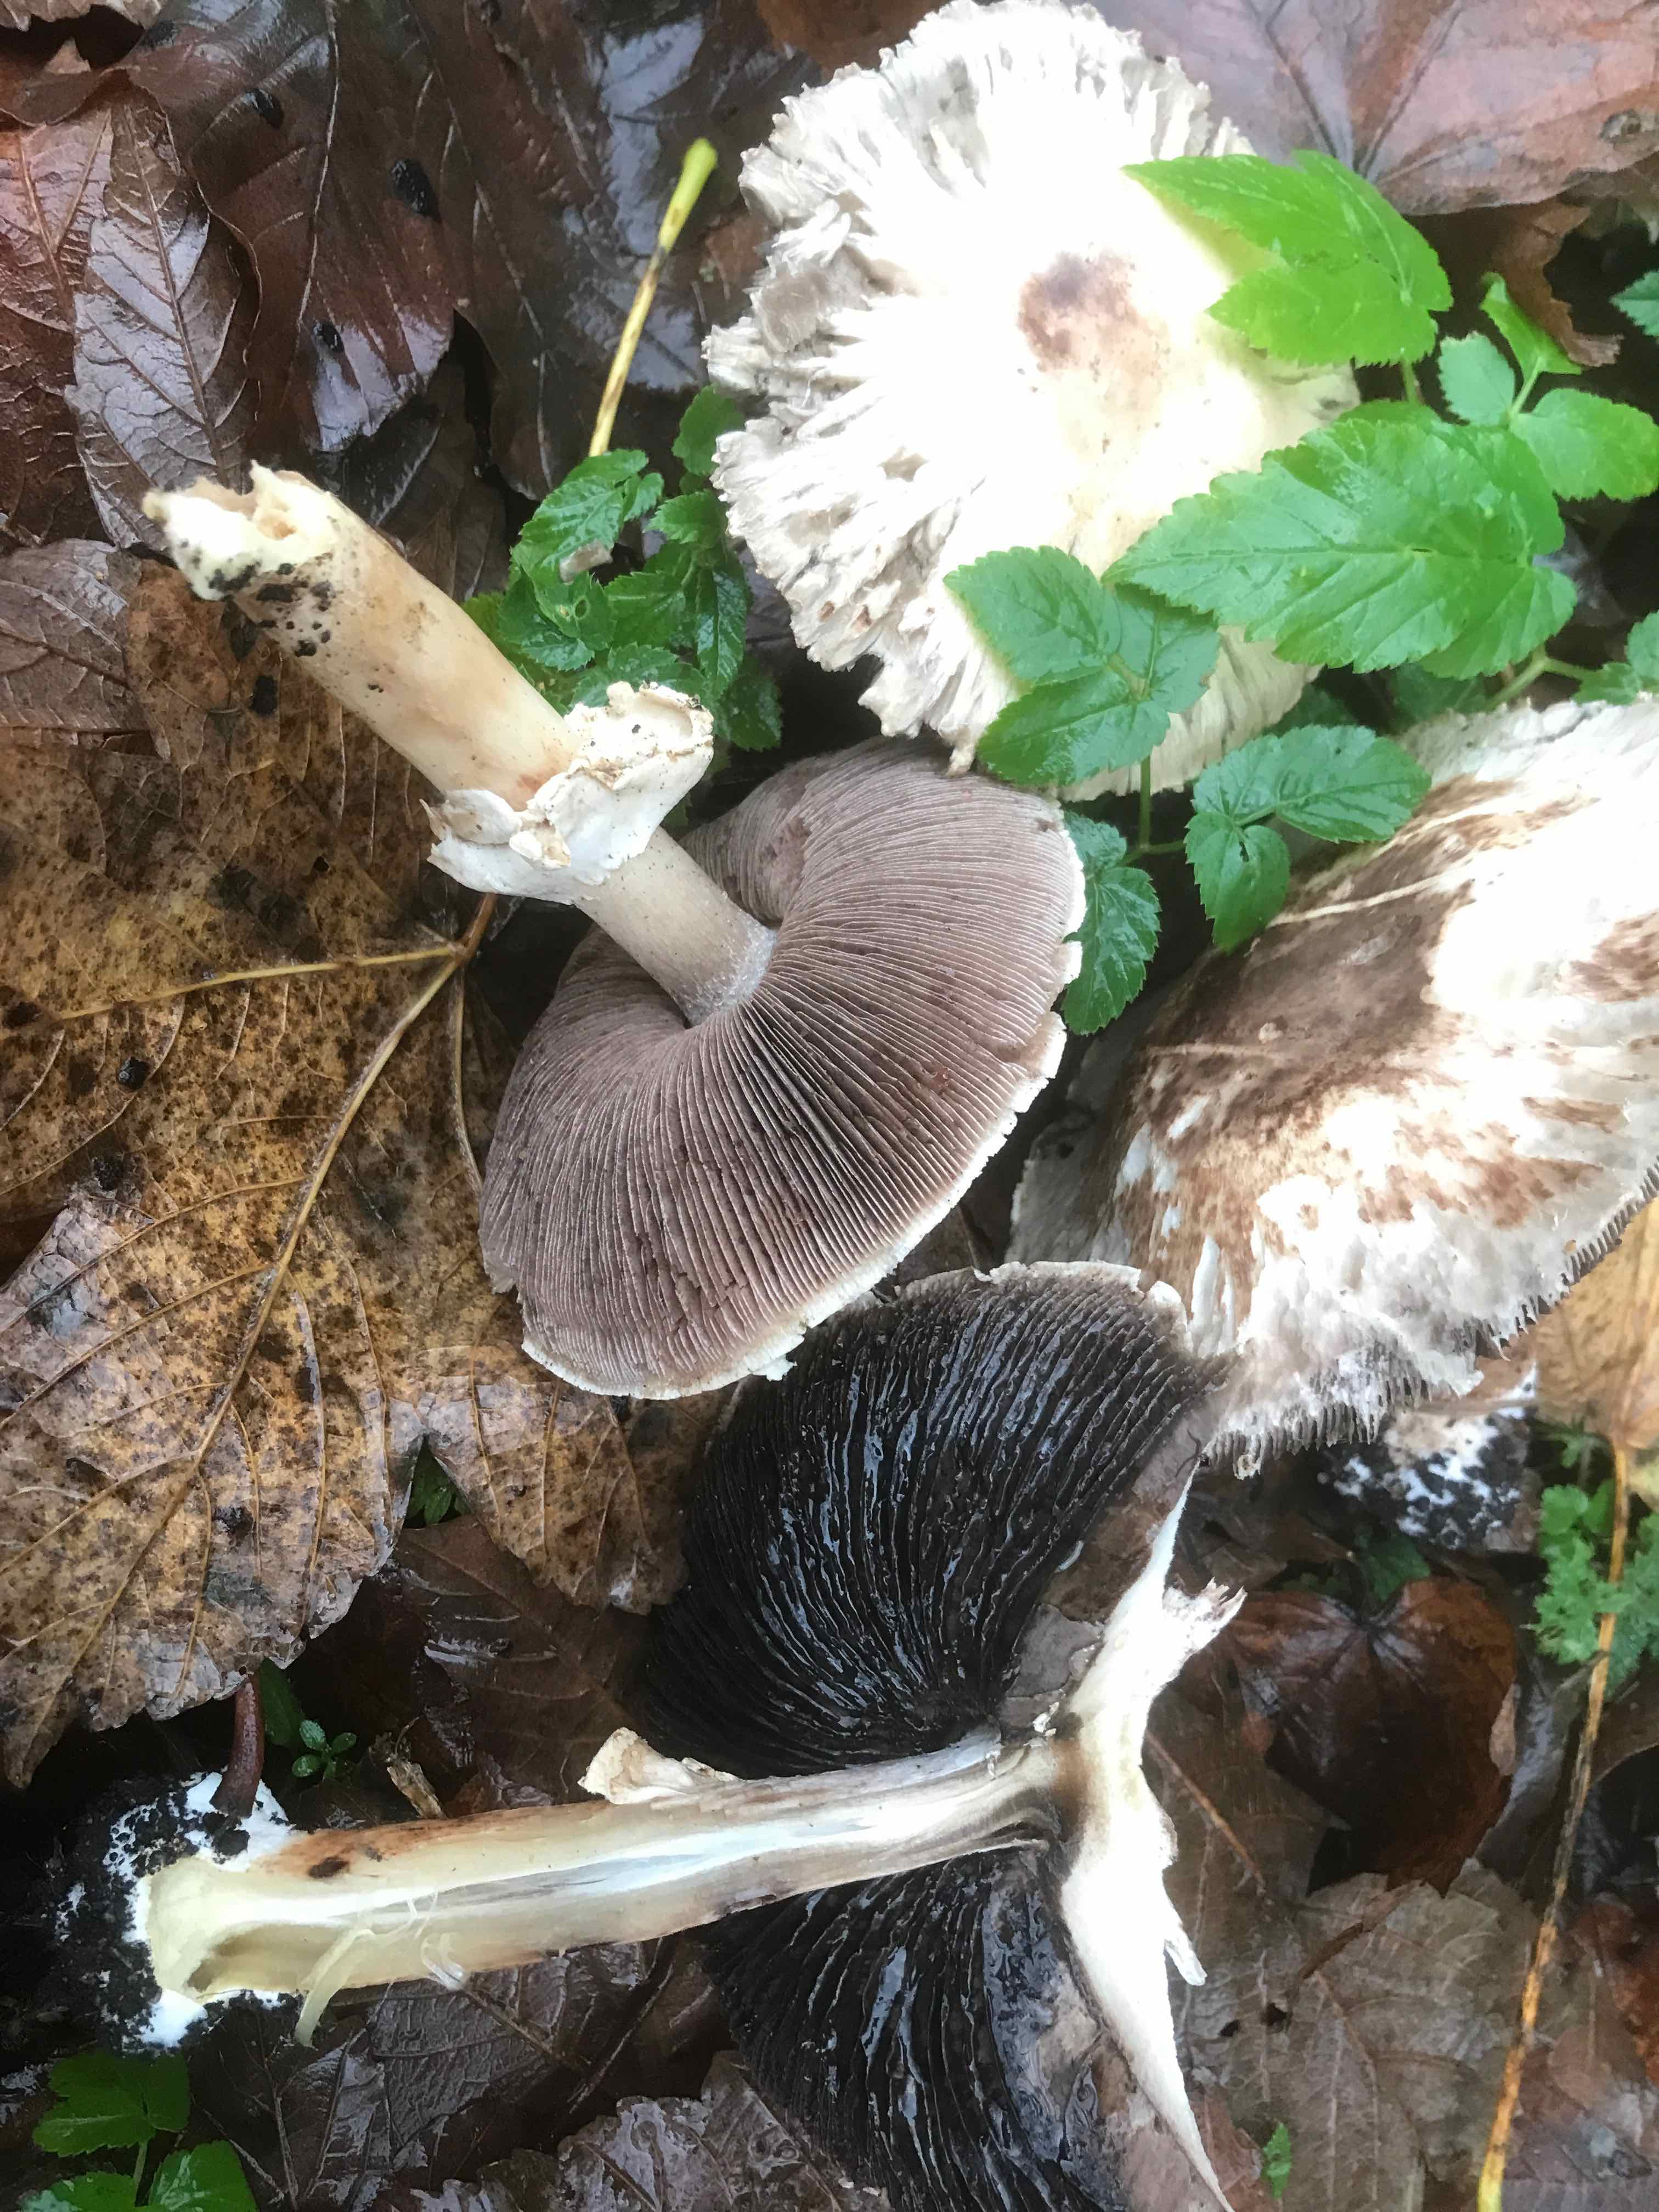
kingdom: Fungi
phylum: Basidiomycota
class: Agaricomycetes
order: Agaricales
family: Agaricaceae
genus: Agaricus
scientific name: Agaricus impudicus
